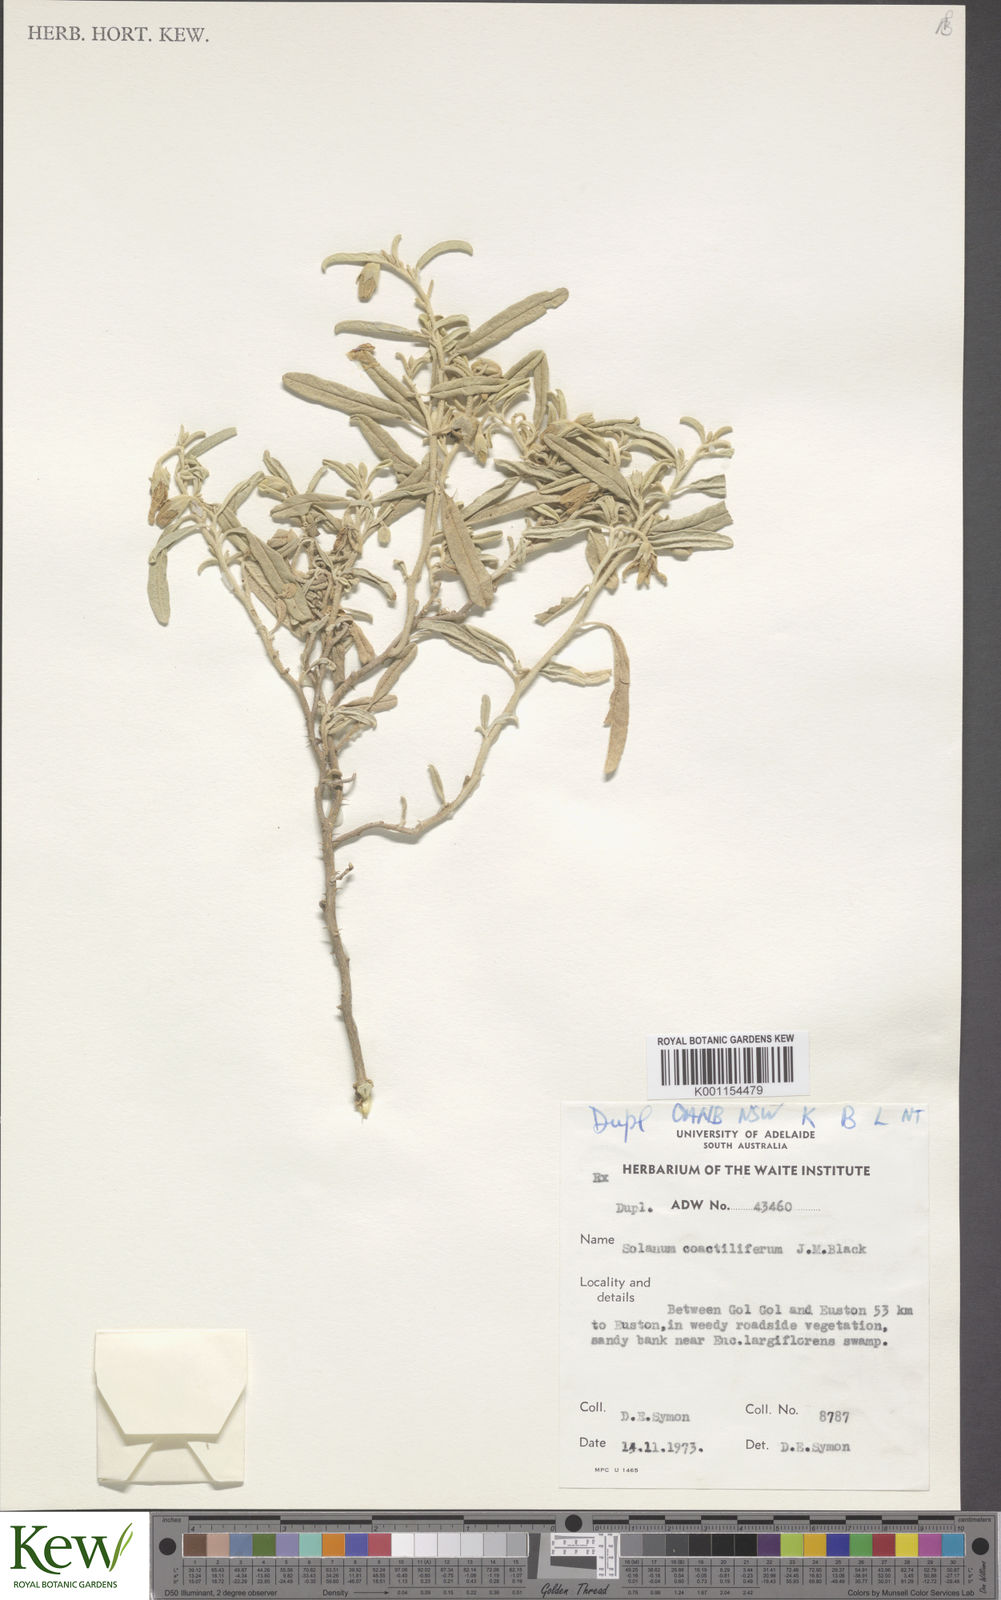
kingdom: Plantae
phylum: Tracheophyta
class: Magnoliopsida
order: Solanales
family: Solanaceae
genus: Solanum
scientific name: Solanum coactiliferum
